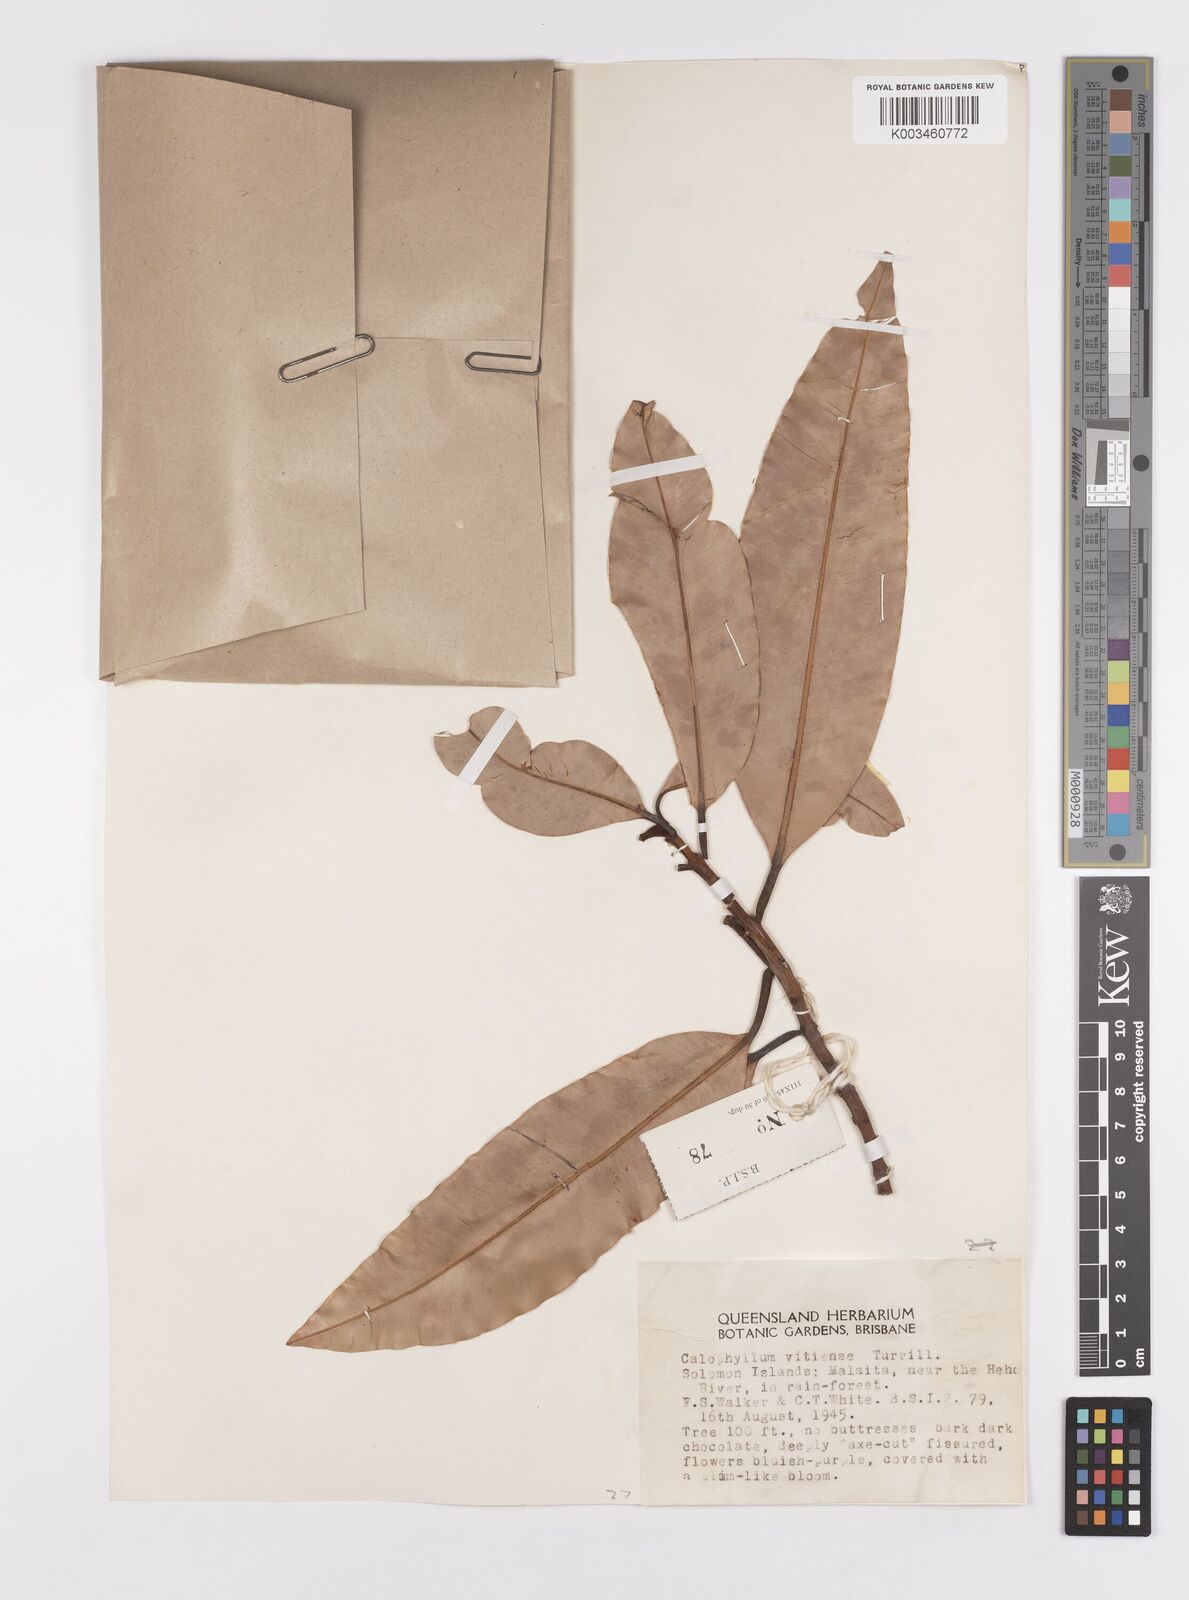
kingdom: Plantae
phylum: Tracheophyta
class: Magnoliopsida
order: Malpighiales
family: Calophyllaceae
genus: Calophyllum
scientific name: Calophyllum vitiense
